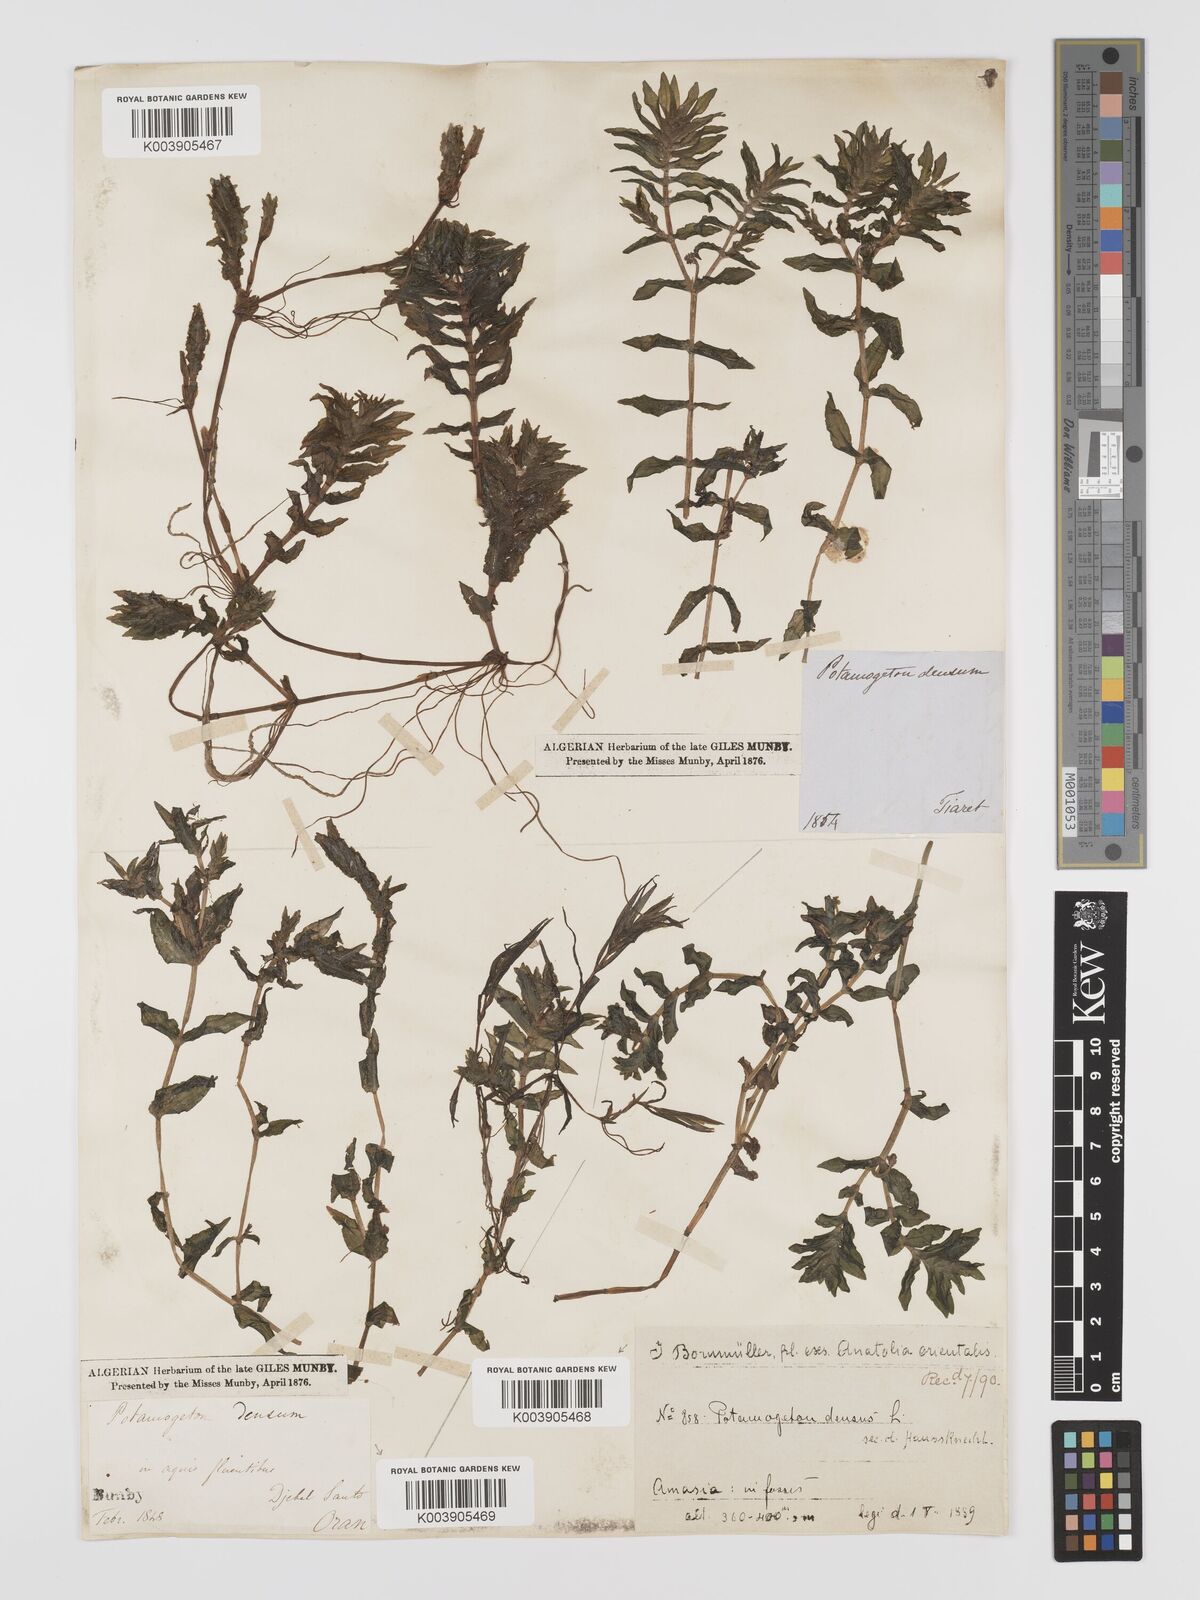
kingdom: Plantae
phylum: Tracheophyta
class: Liliopsida
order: Alismatales
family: Potamogetonaceae
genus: Groenlandia
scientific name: Groenlandia densa
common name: Opposite-leaved pondweed
